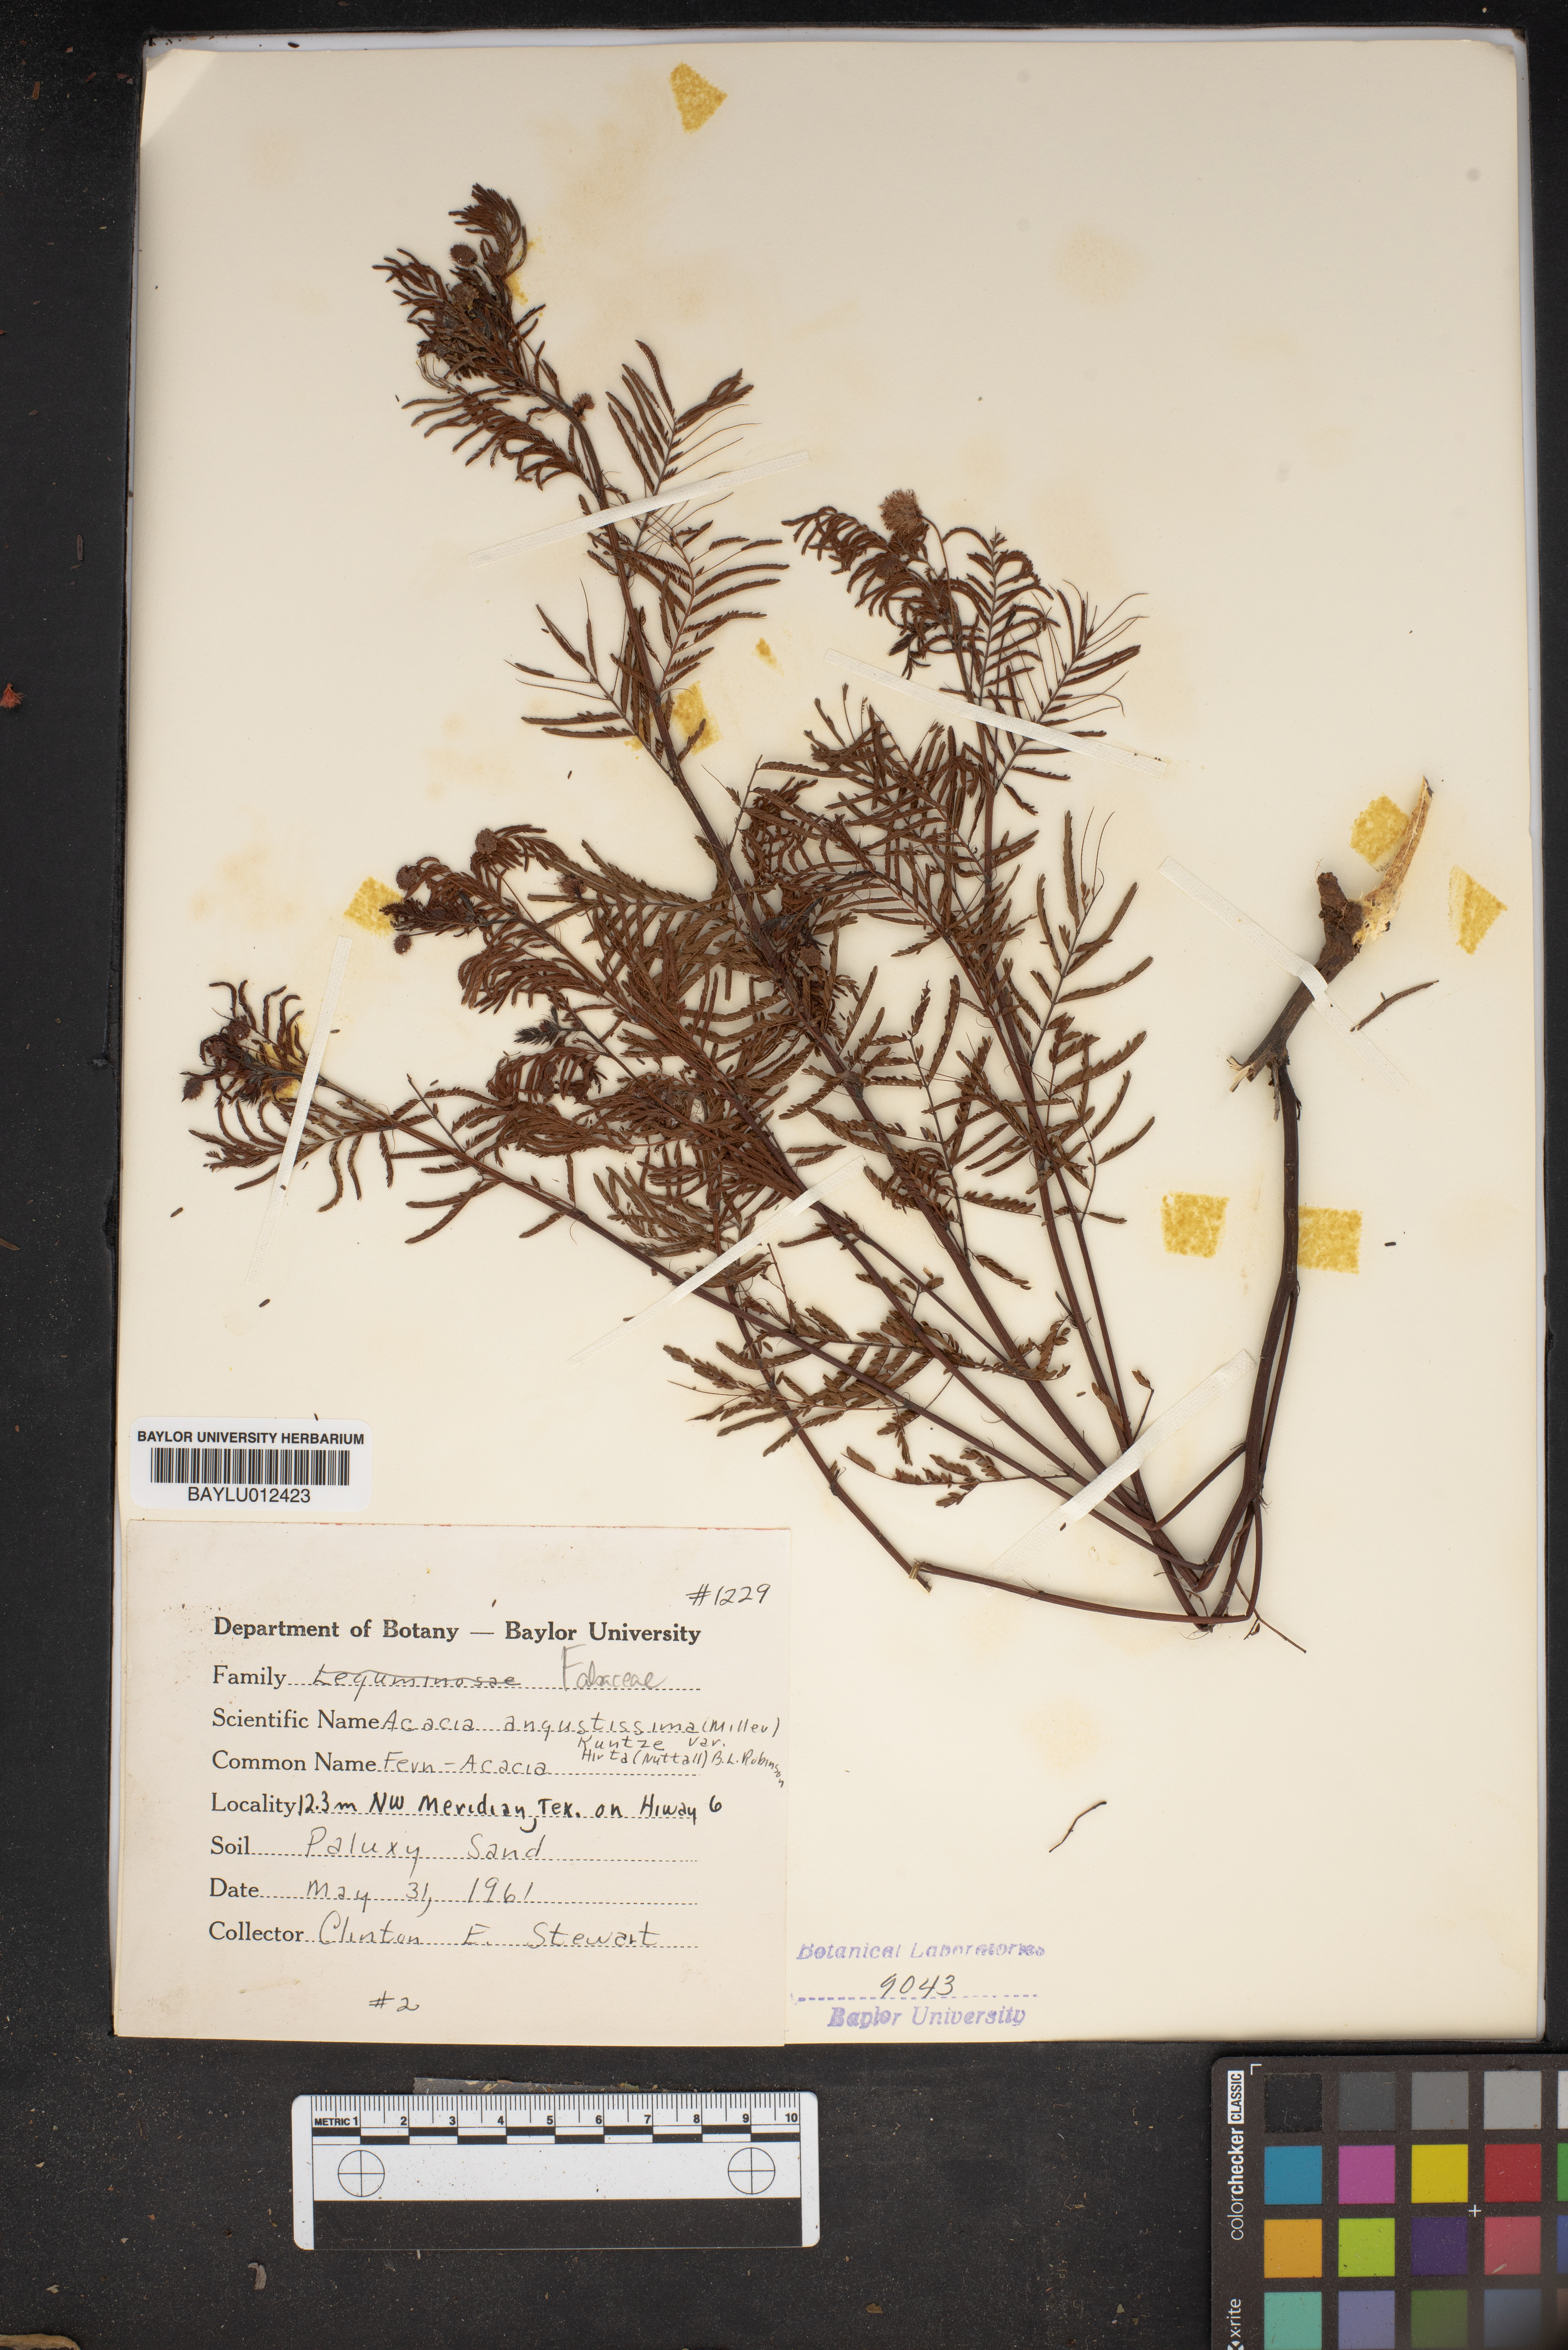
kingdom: Plantae
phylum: Tracheophyta
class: Magnoliopsida
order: Fabales
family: Fabaceae
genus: Acaciella
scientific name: Acaciella angustissima
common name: Prairie acacia
